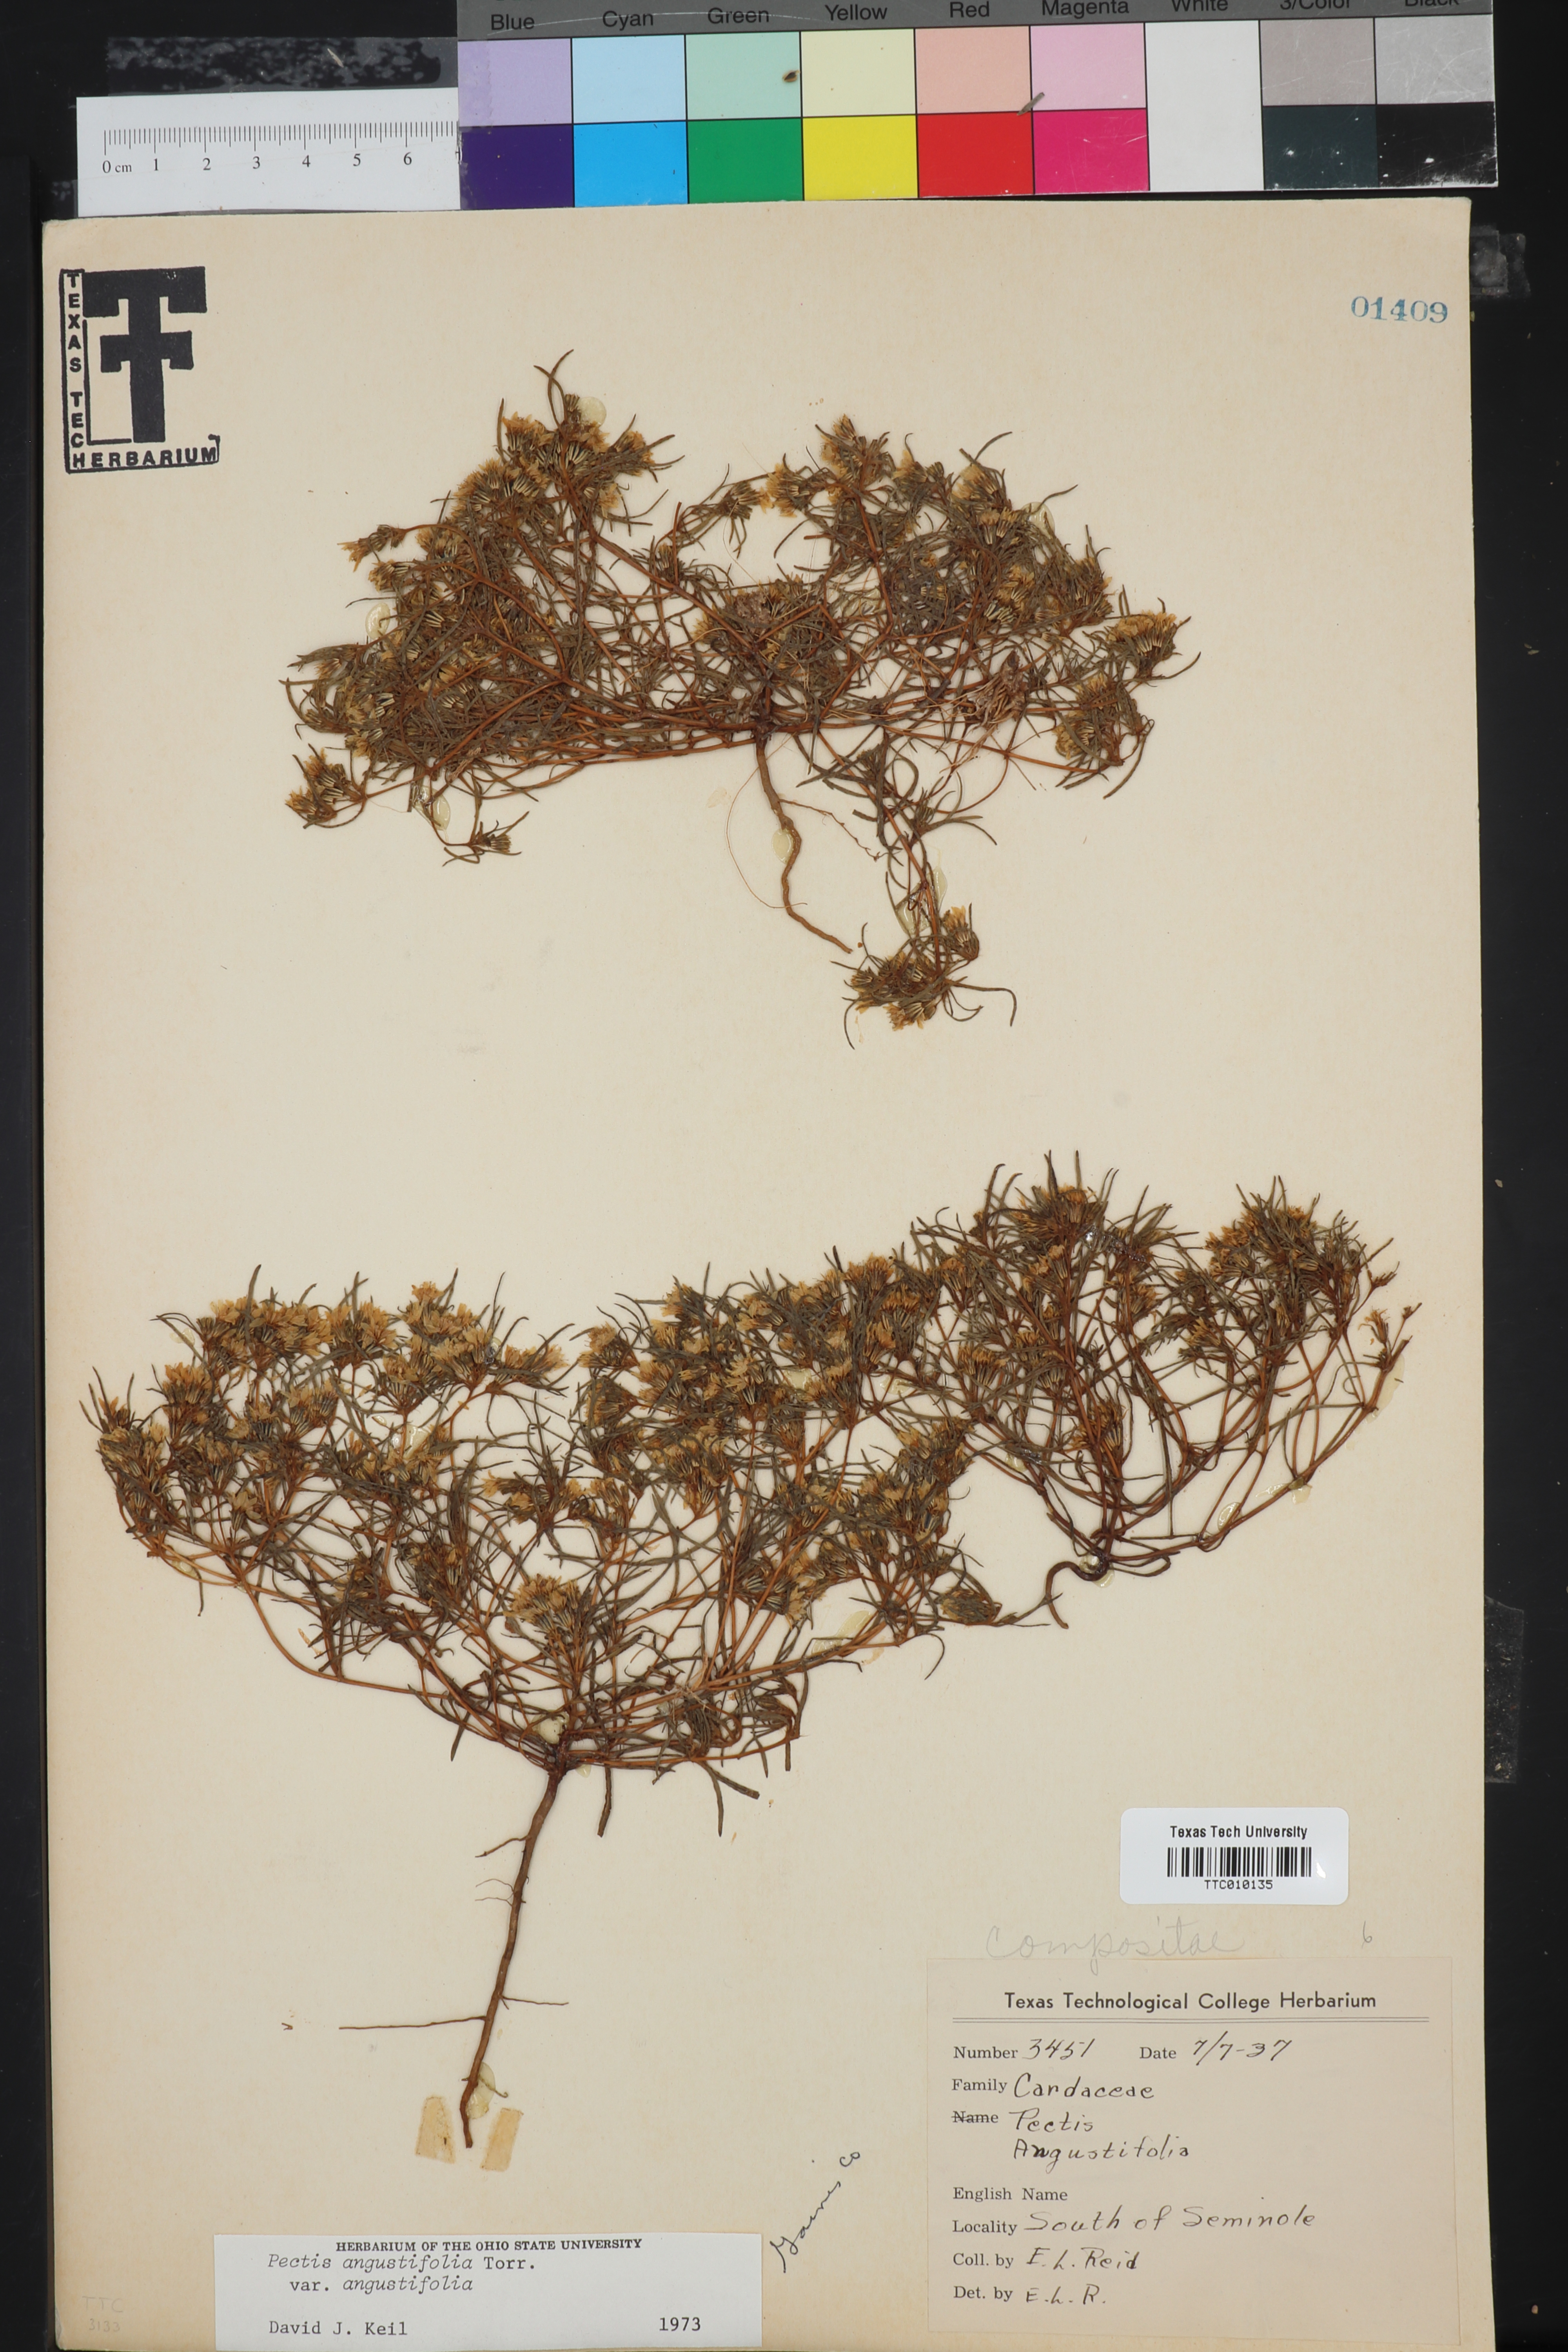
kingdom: Plantae
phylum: Tracheophyta
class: Magnoliopsida
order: Asterales
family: Asteraceae
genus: Pectis
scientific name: Pectis angustifolia
